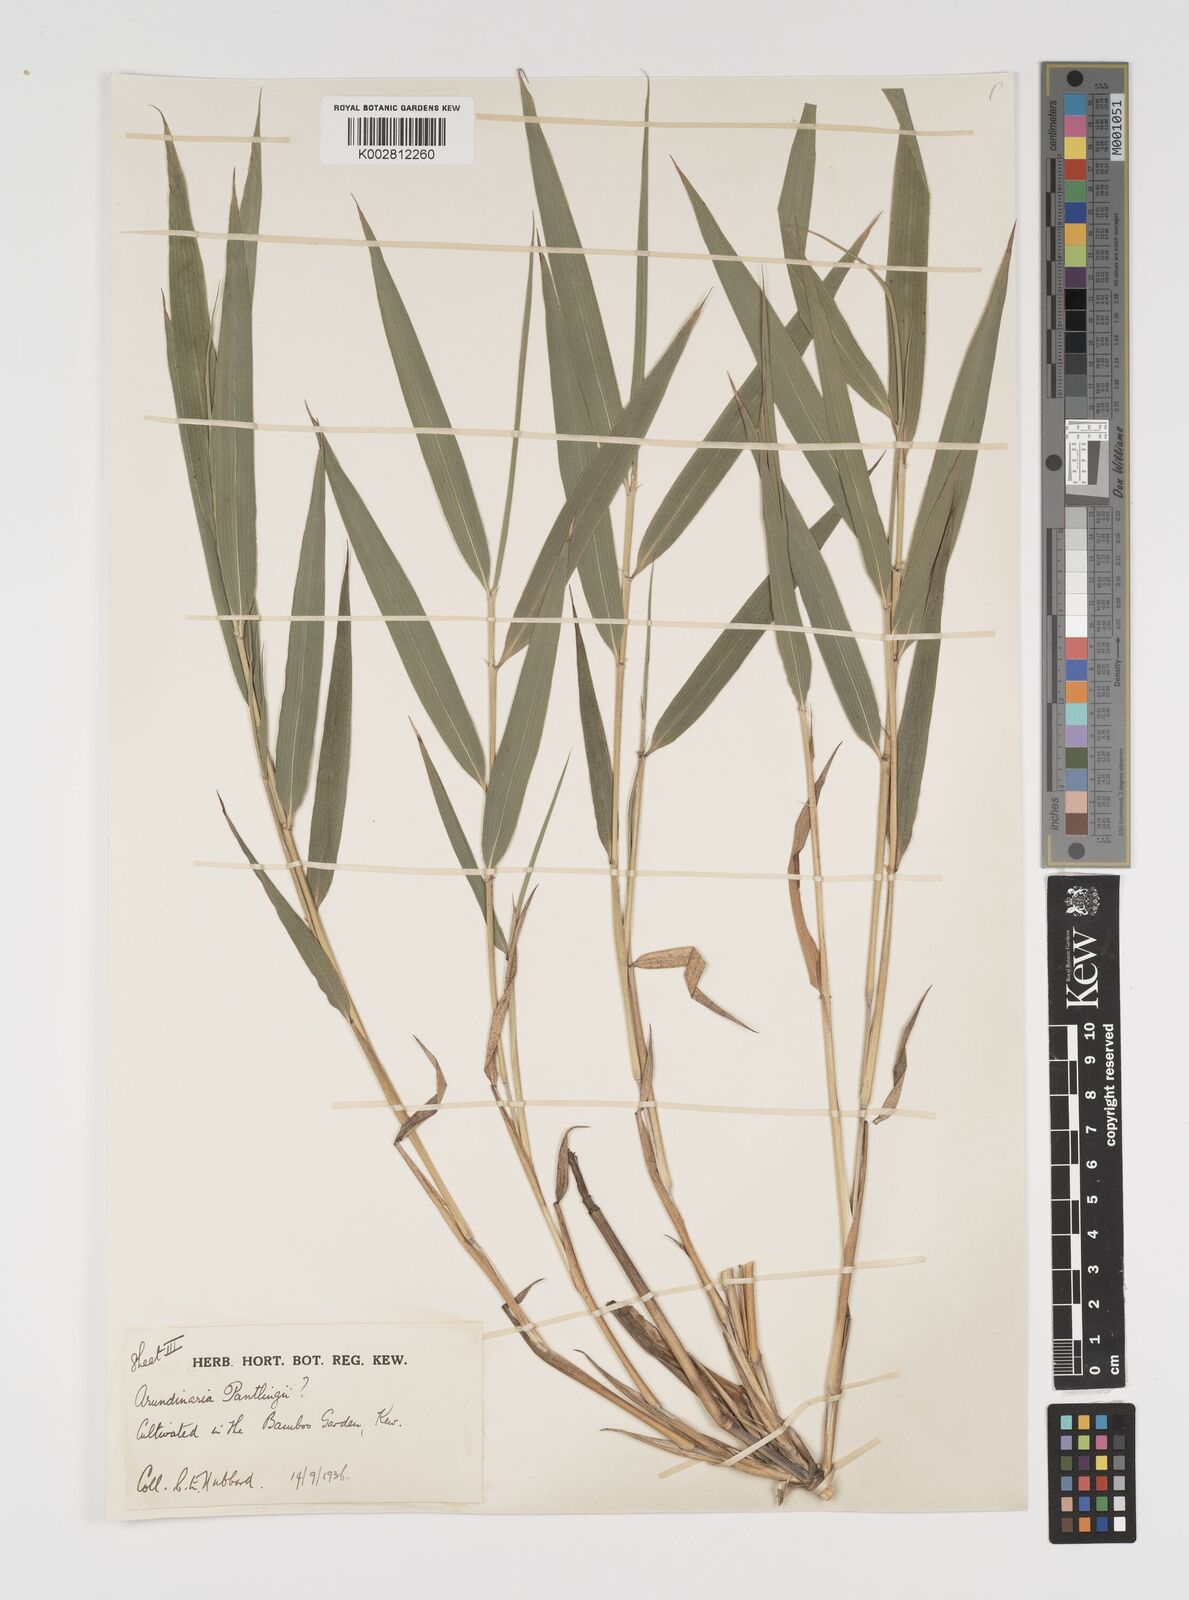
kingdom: Plantae
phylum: Tracheophyta
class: Liliopsida
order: Poales
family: Poaceae
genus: Yushania
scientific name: Yushania
